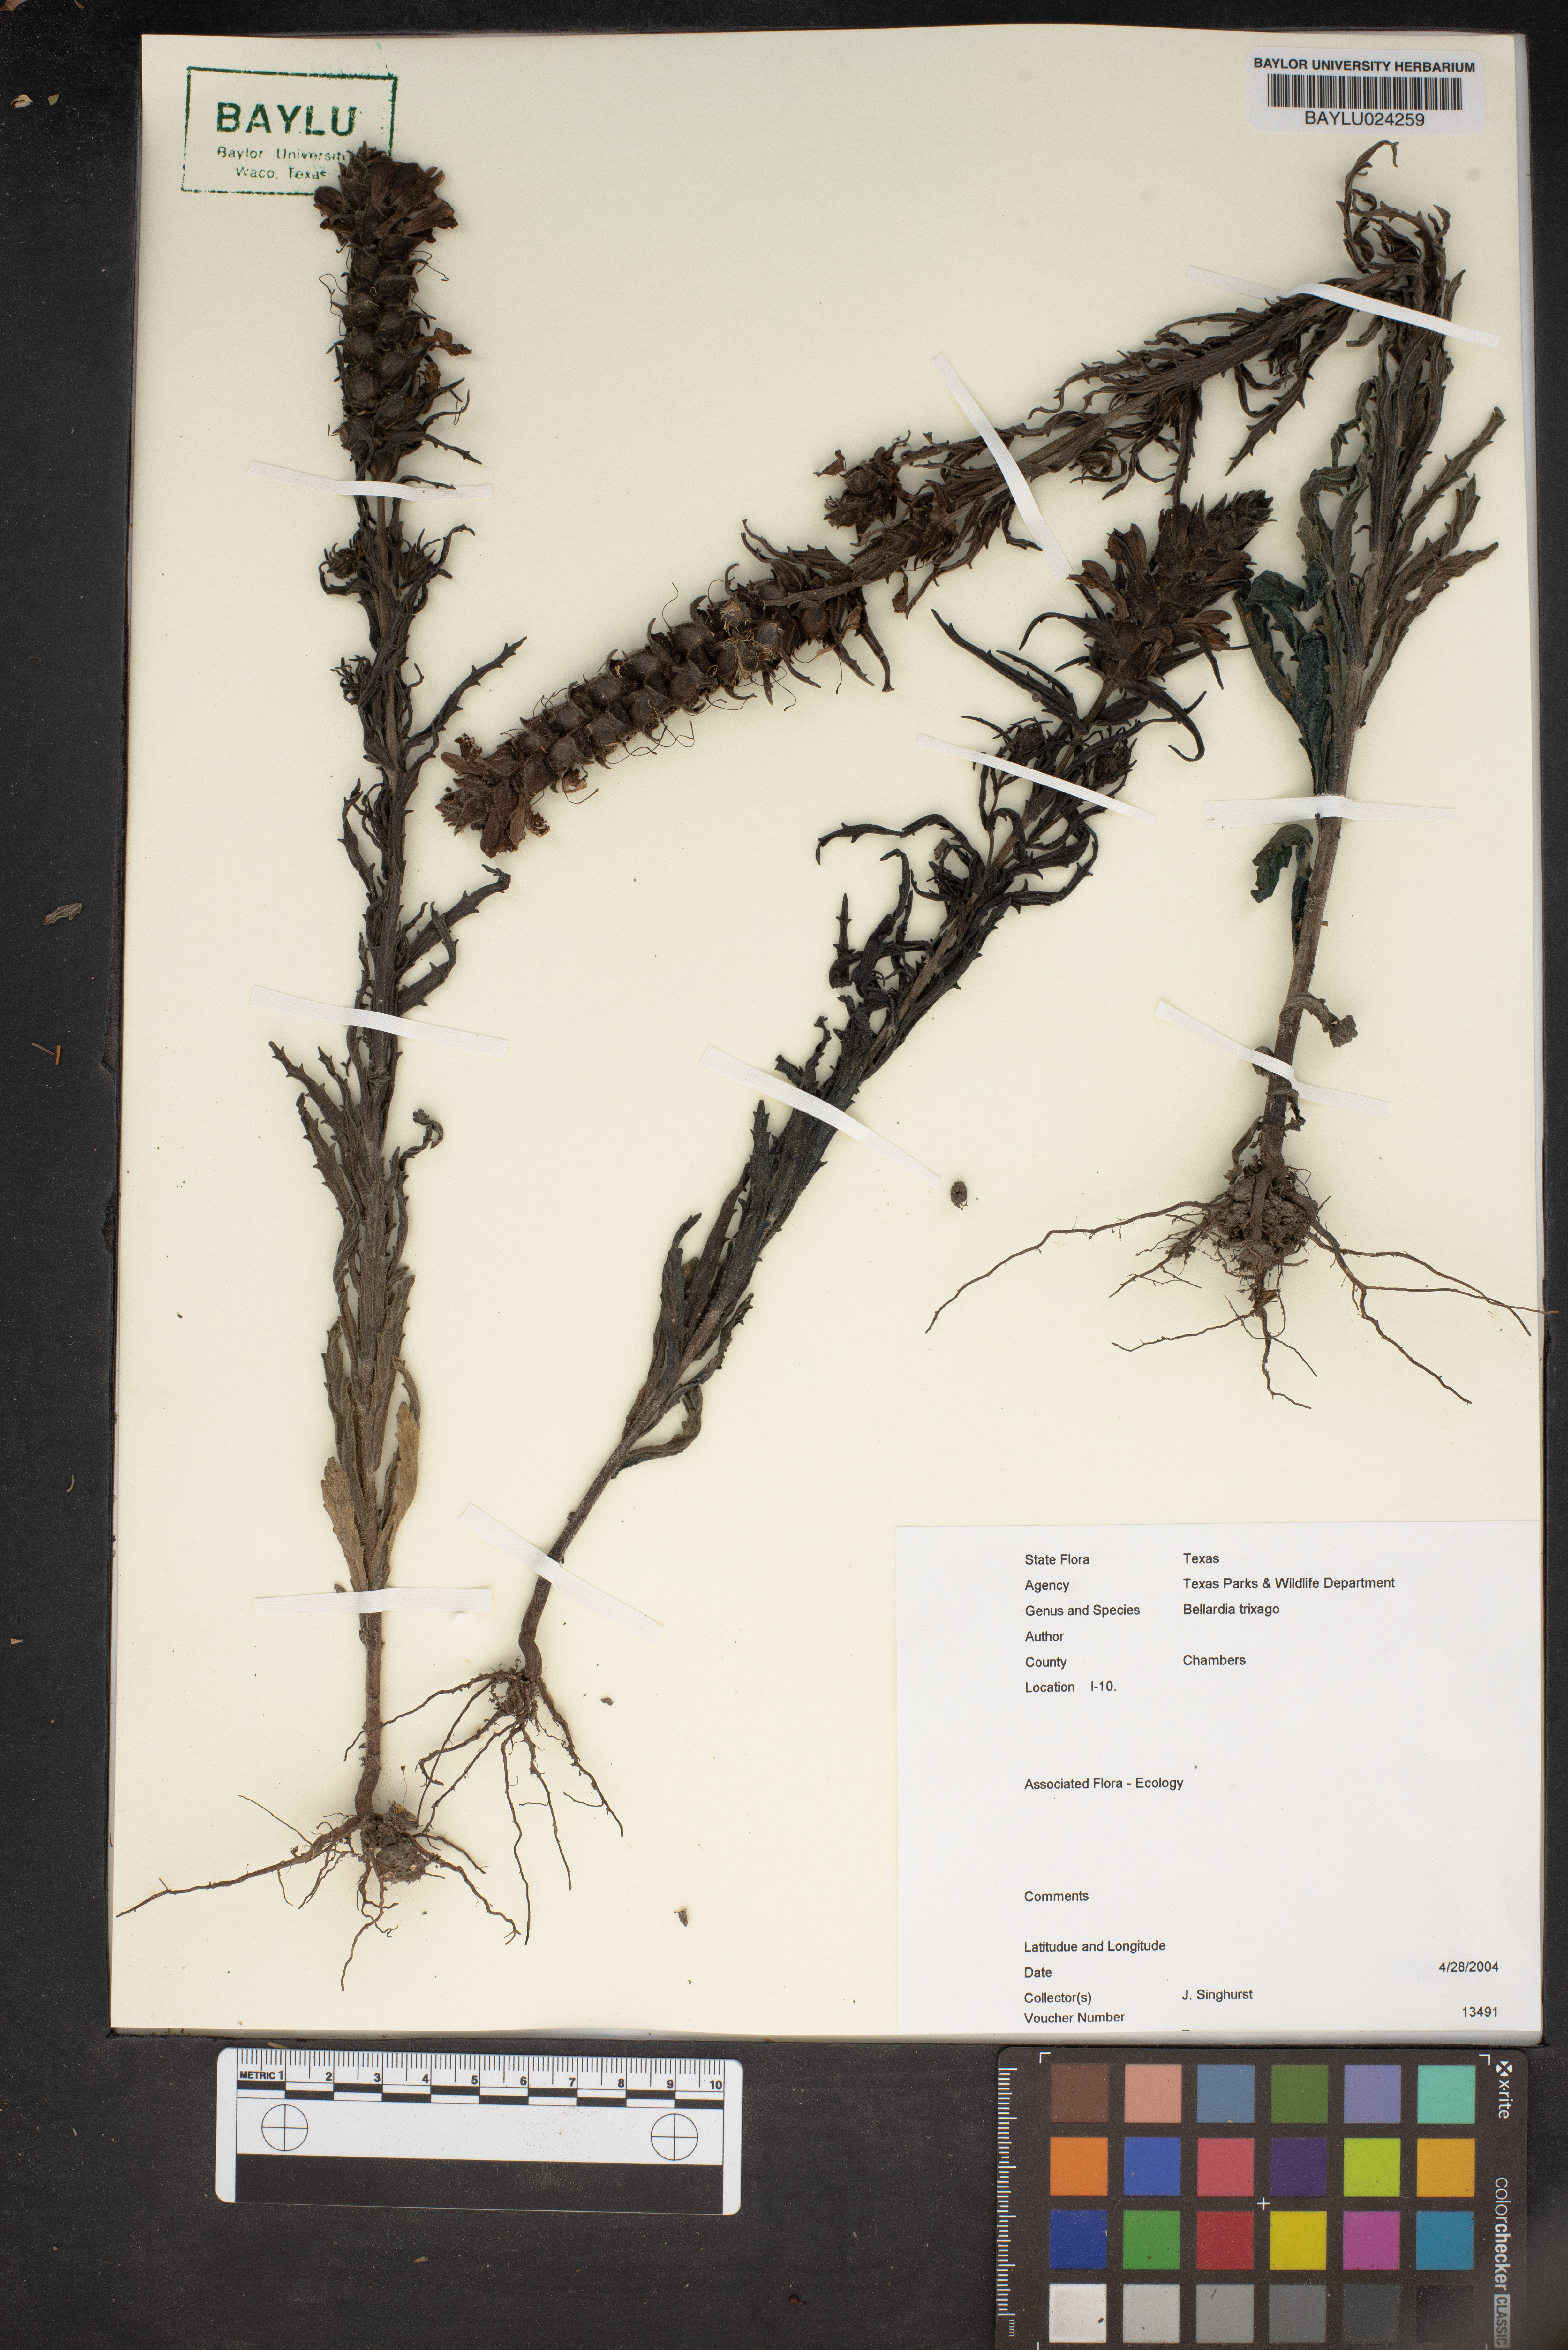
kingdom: Plantae
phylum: Tracheophyta
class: Magnoliopsida
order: Lamiales
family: Orobanchaceae
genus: Bellardia
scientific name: Bellardia trixago
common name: Mediterranean lineseed
